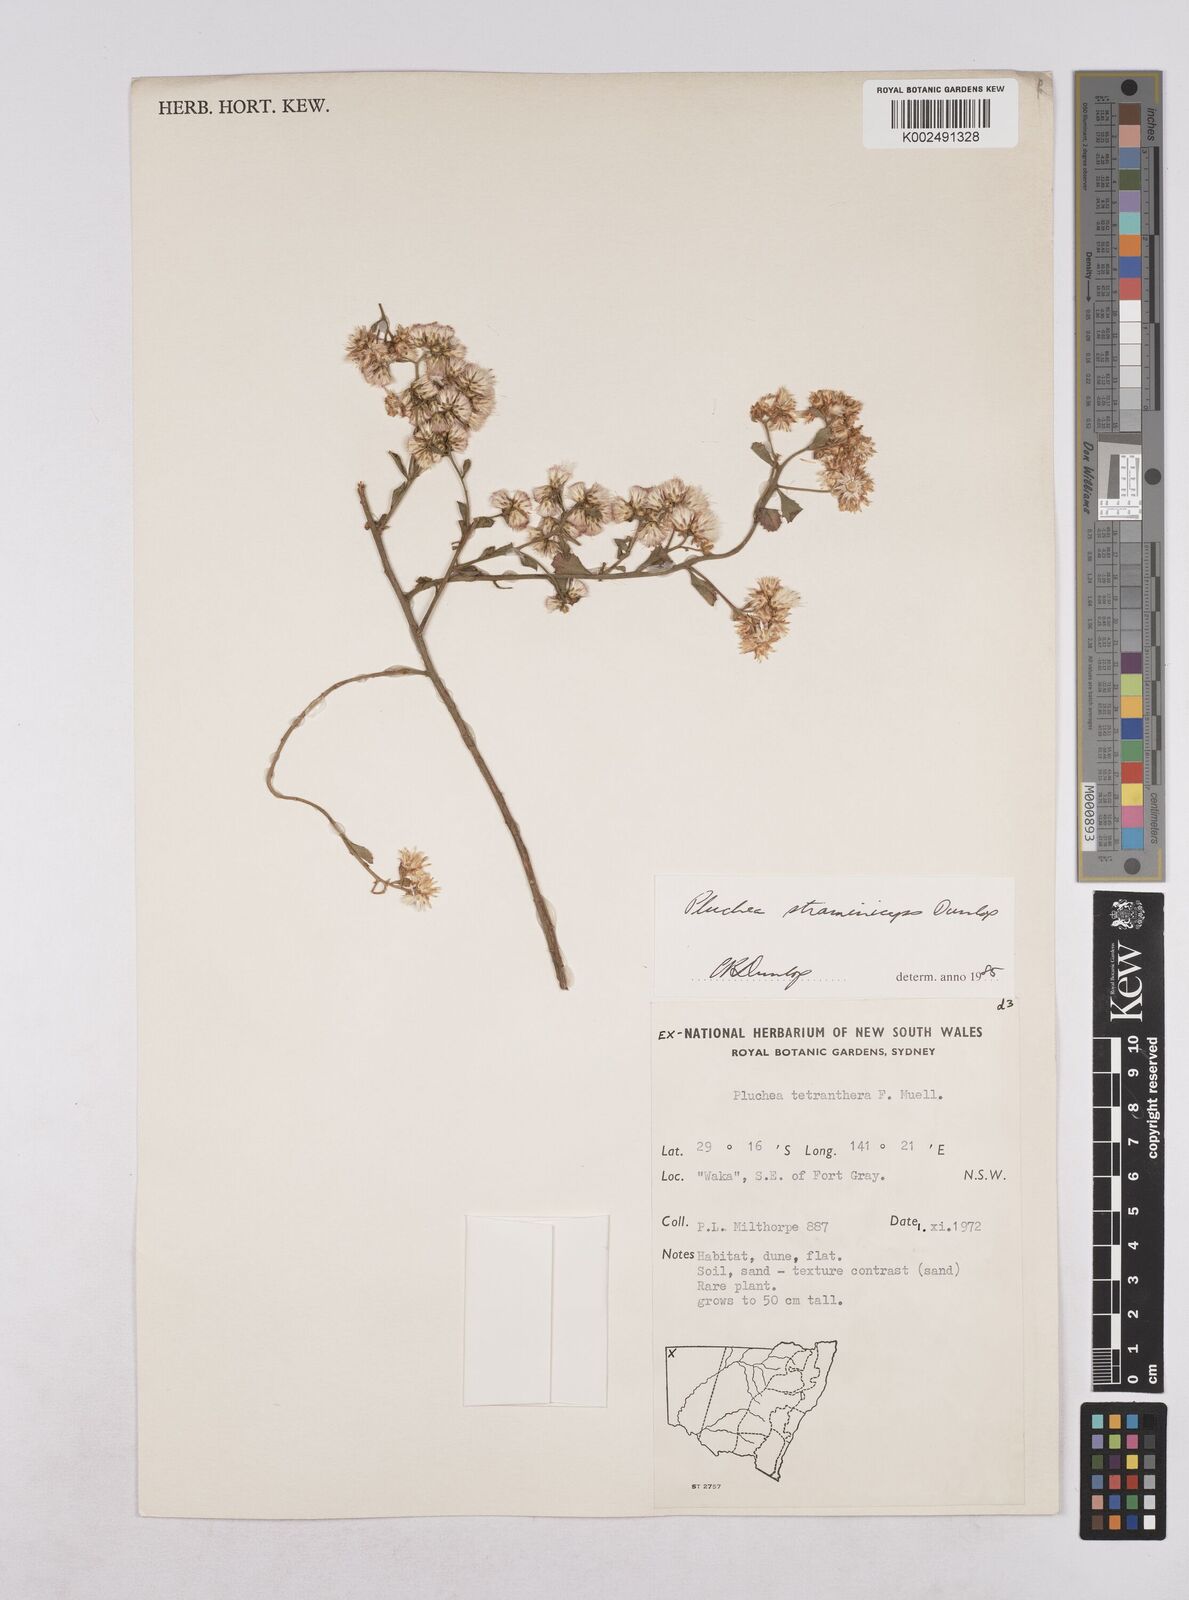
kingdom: Plantae
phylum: Tracheophyta
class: Magnoliopsida
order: Asterales
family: Asteraceae
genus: Pluchea
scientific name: Pluchea dunlopii
